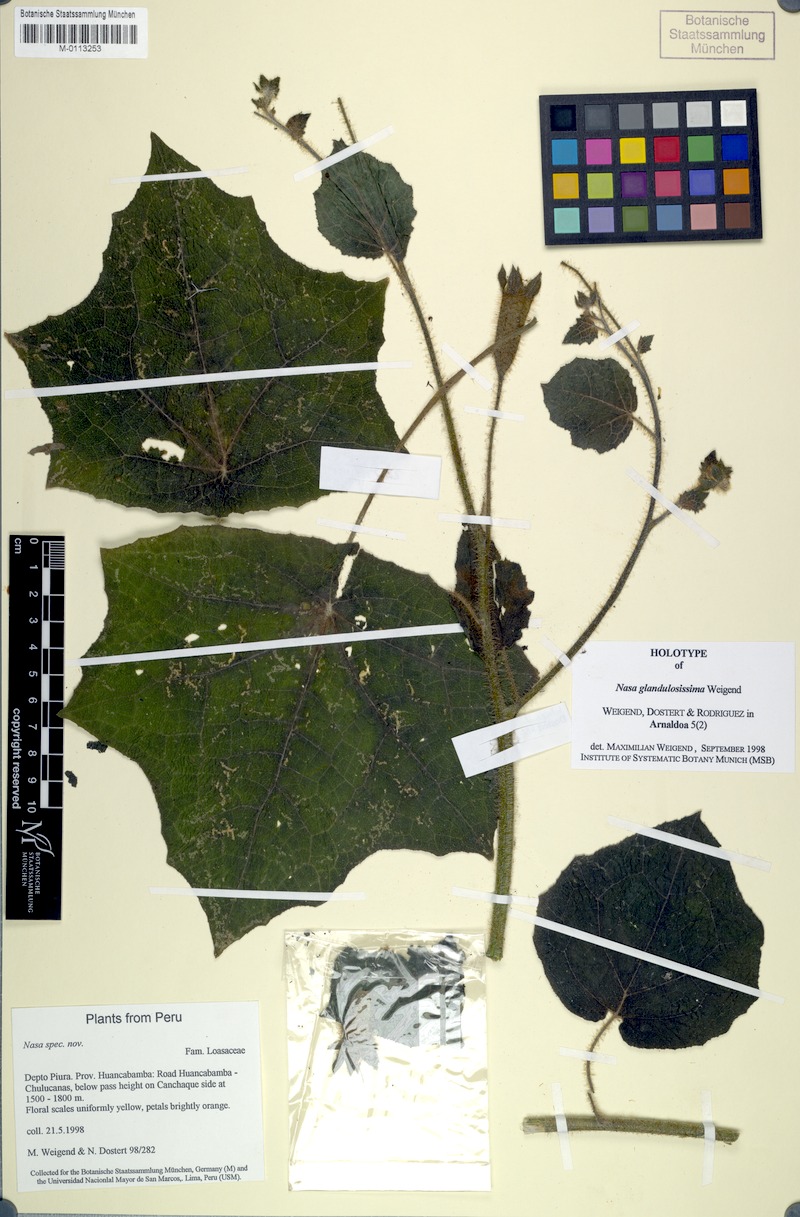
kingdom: Plantae
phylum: Tracheophyta
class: Magnoliopsida
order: Cornales
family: Loasaceae
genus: Nasa
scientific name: Nasa glandulosissima
